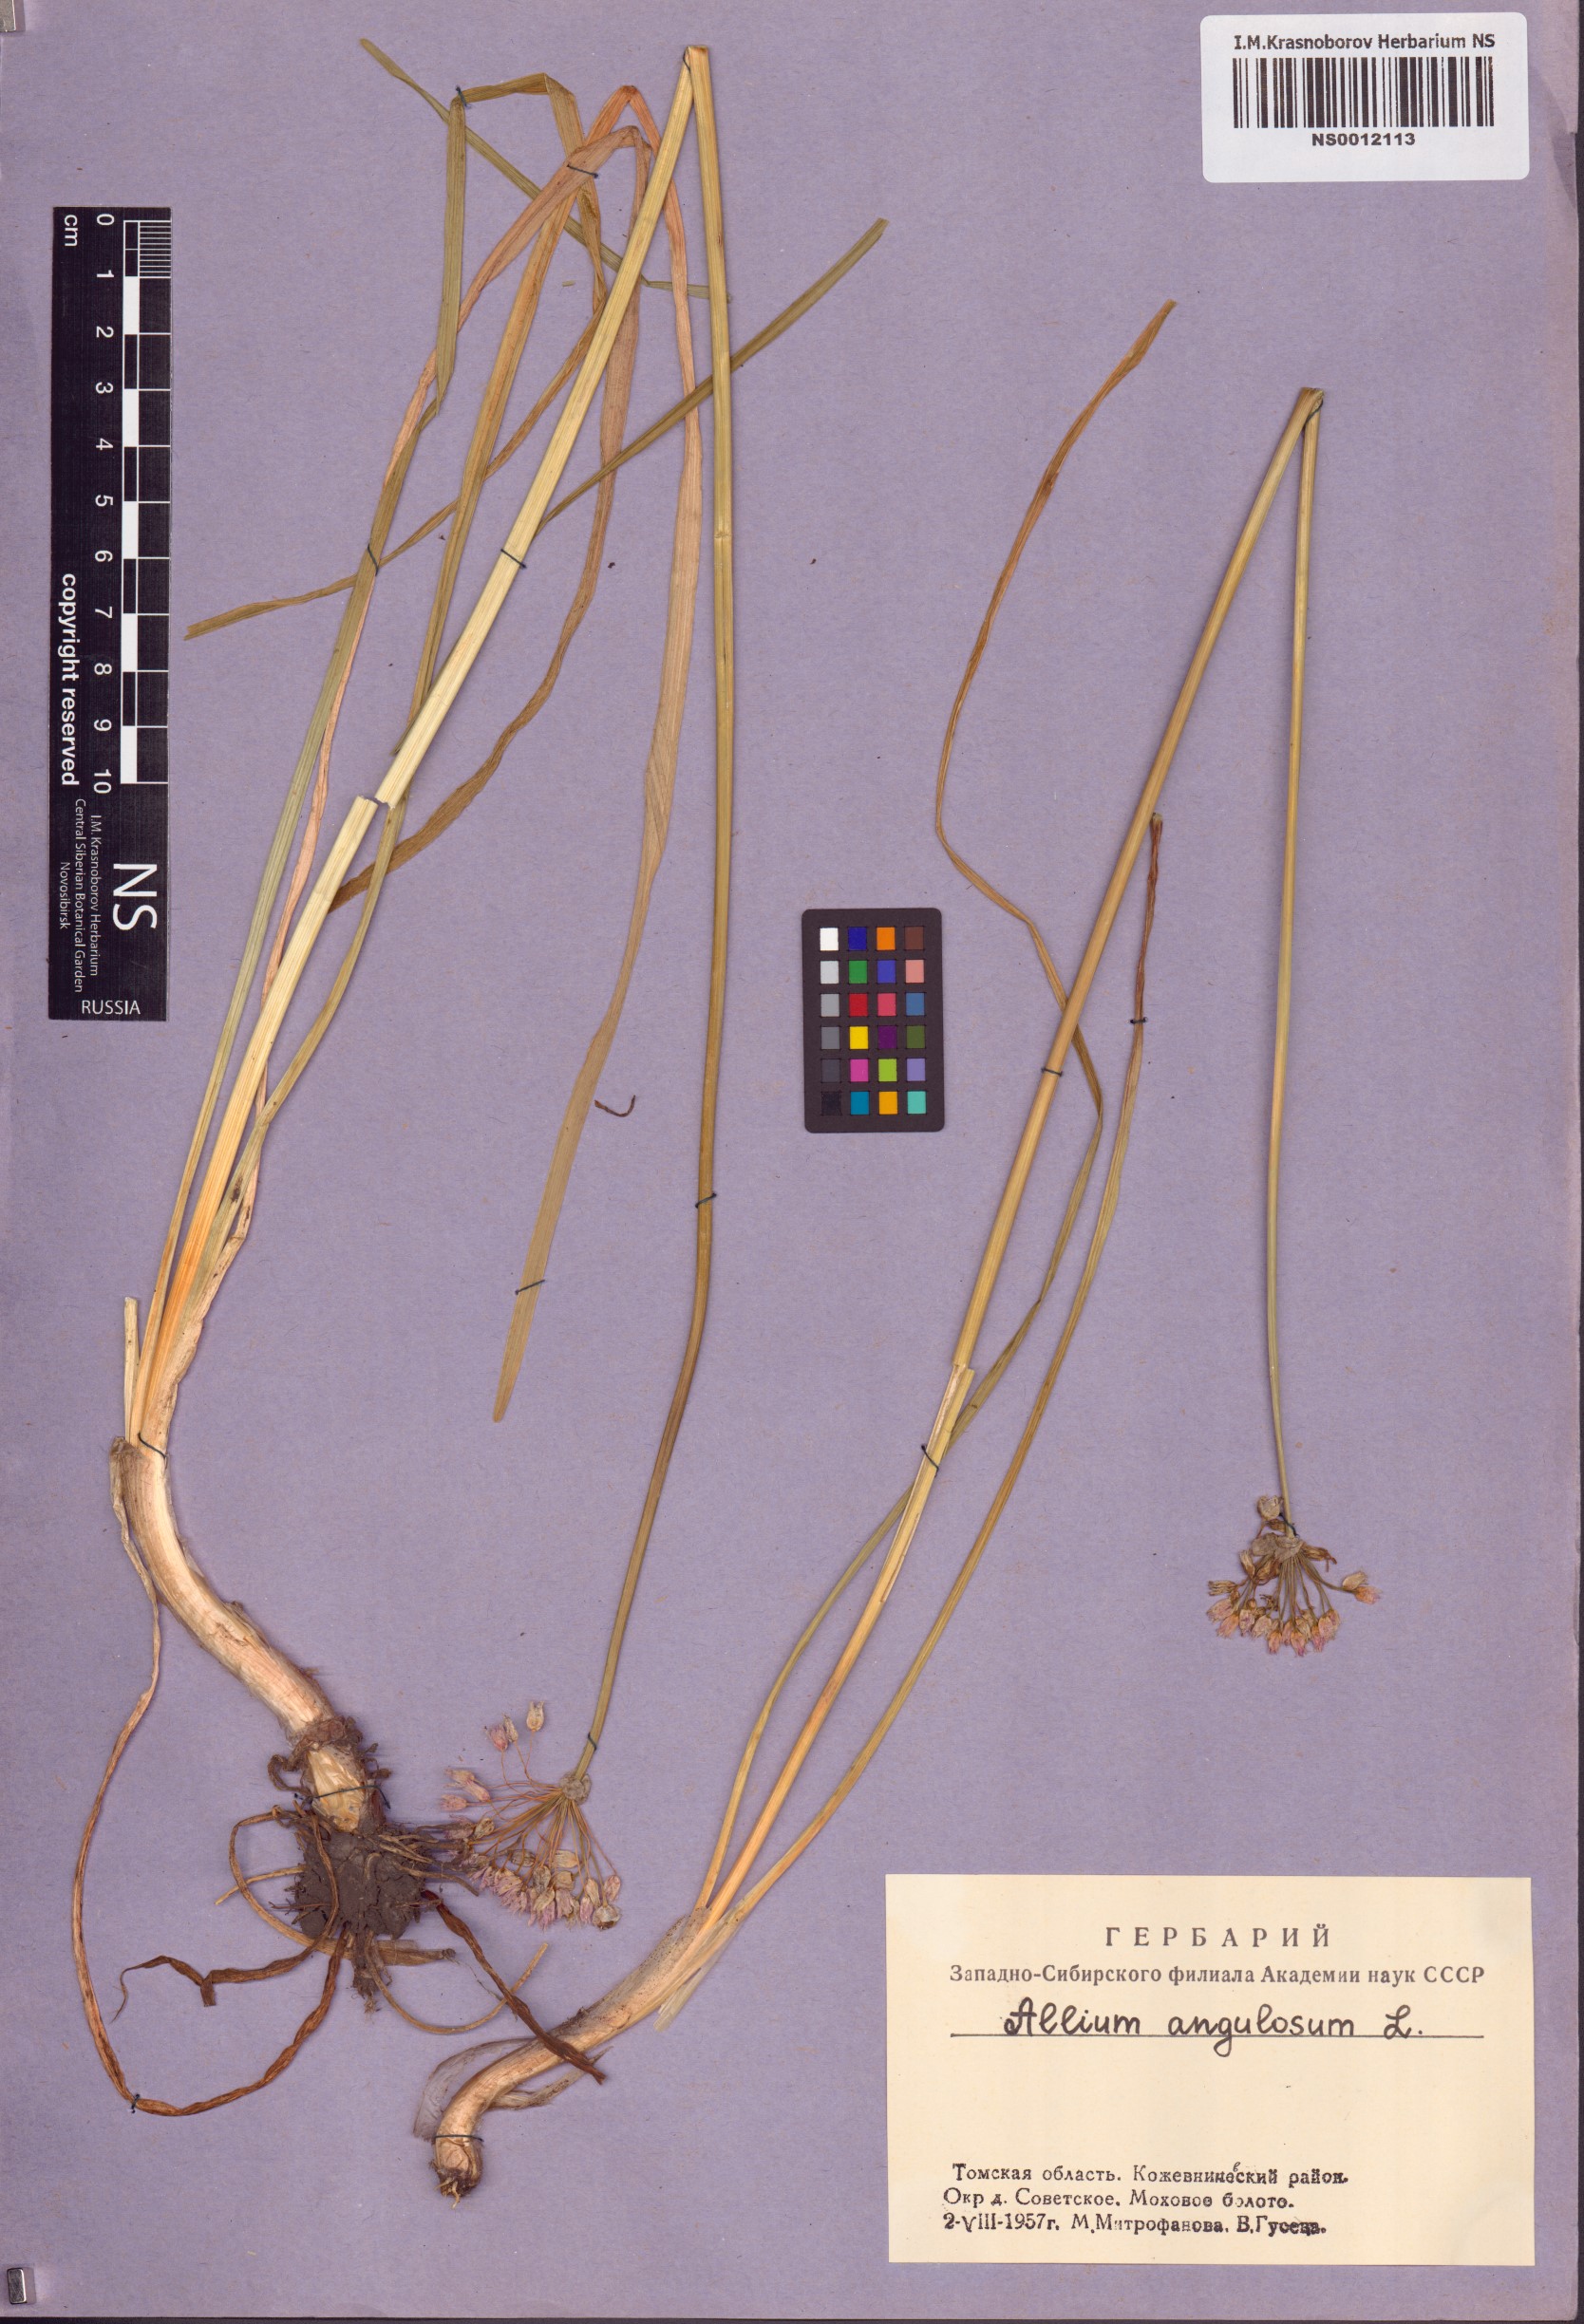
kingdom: Plantae
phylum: Tracheophyta
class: Liliopsida
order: Asparagales
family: Amaryllidaceae
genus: Allium
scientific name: Allium angulosum
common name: Mouse garlic
